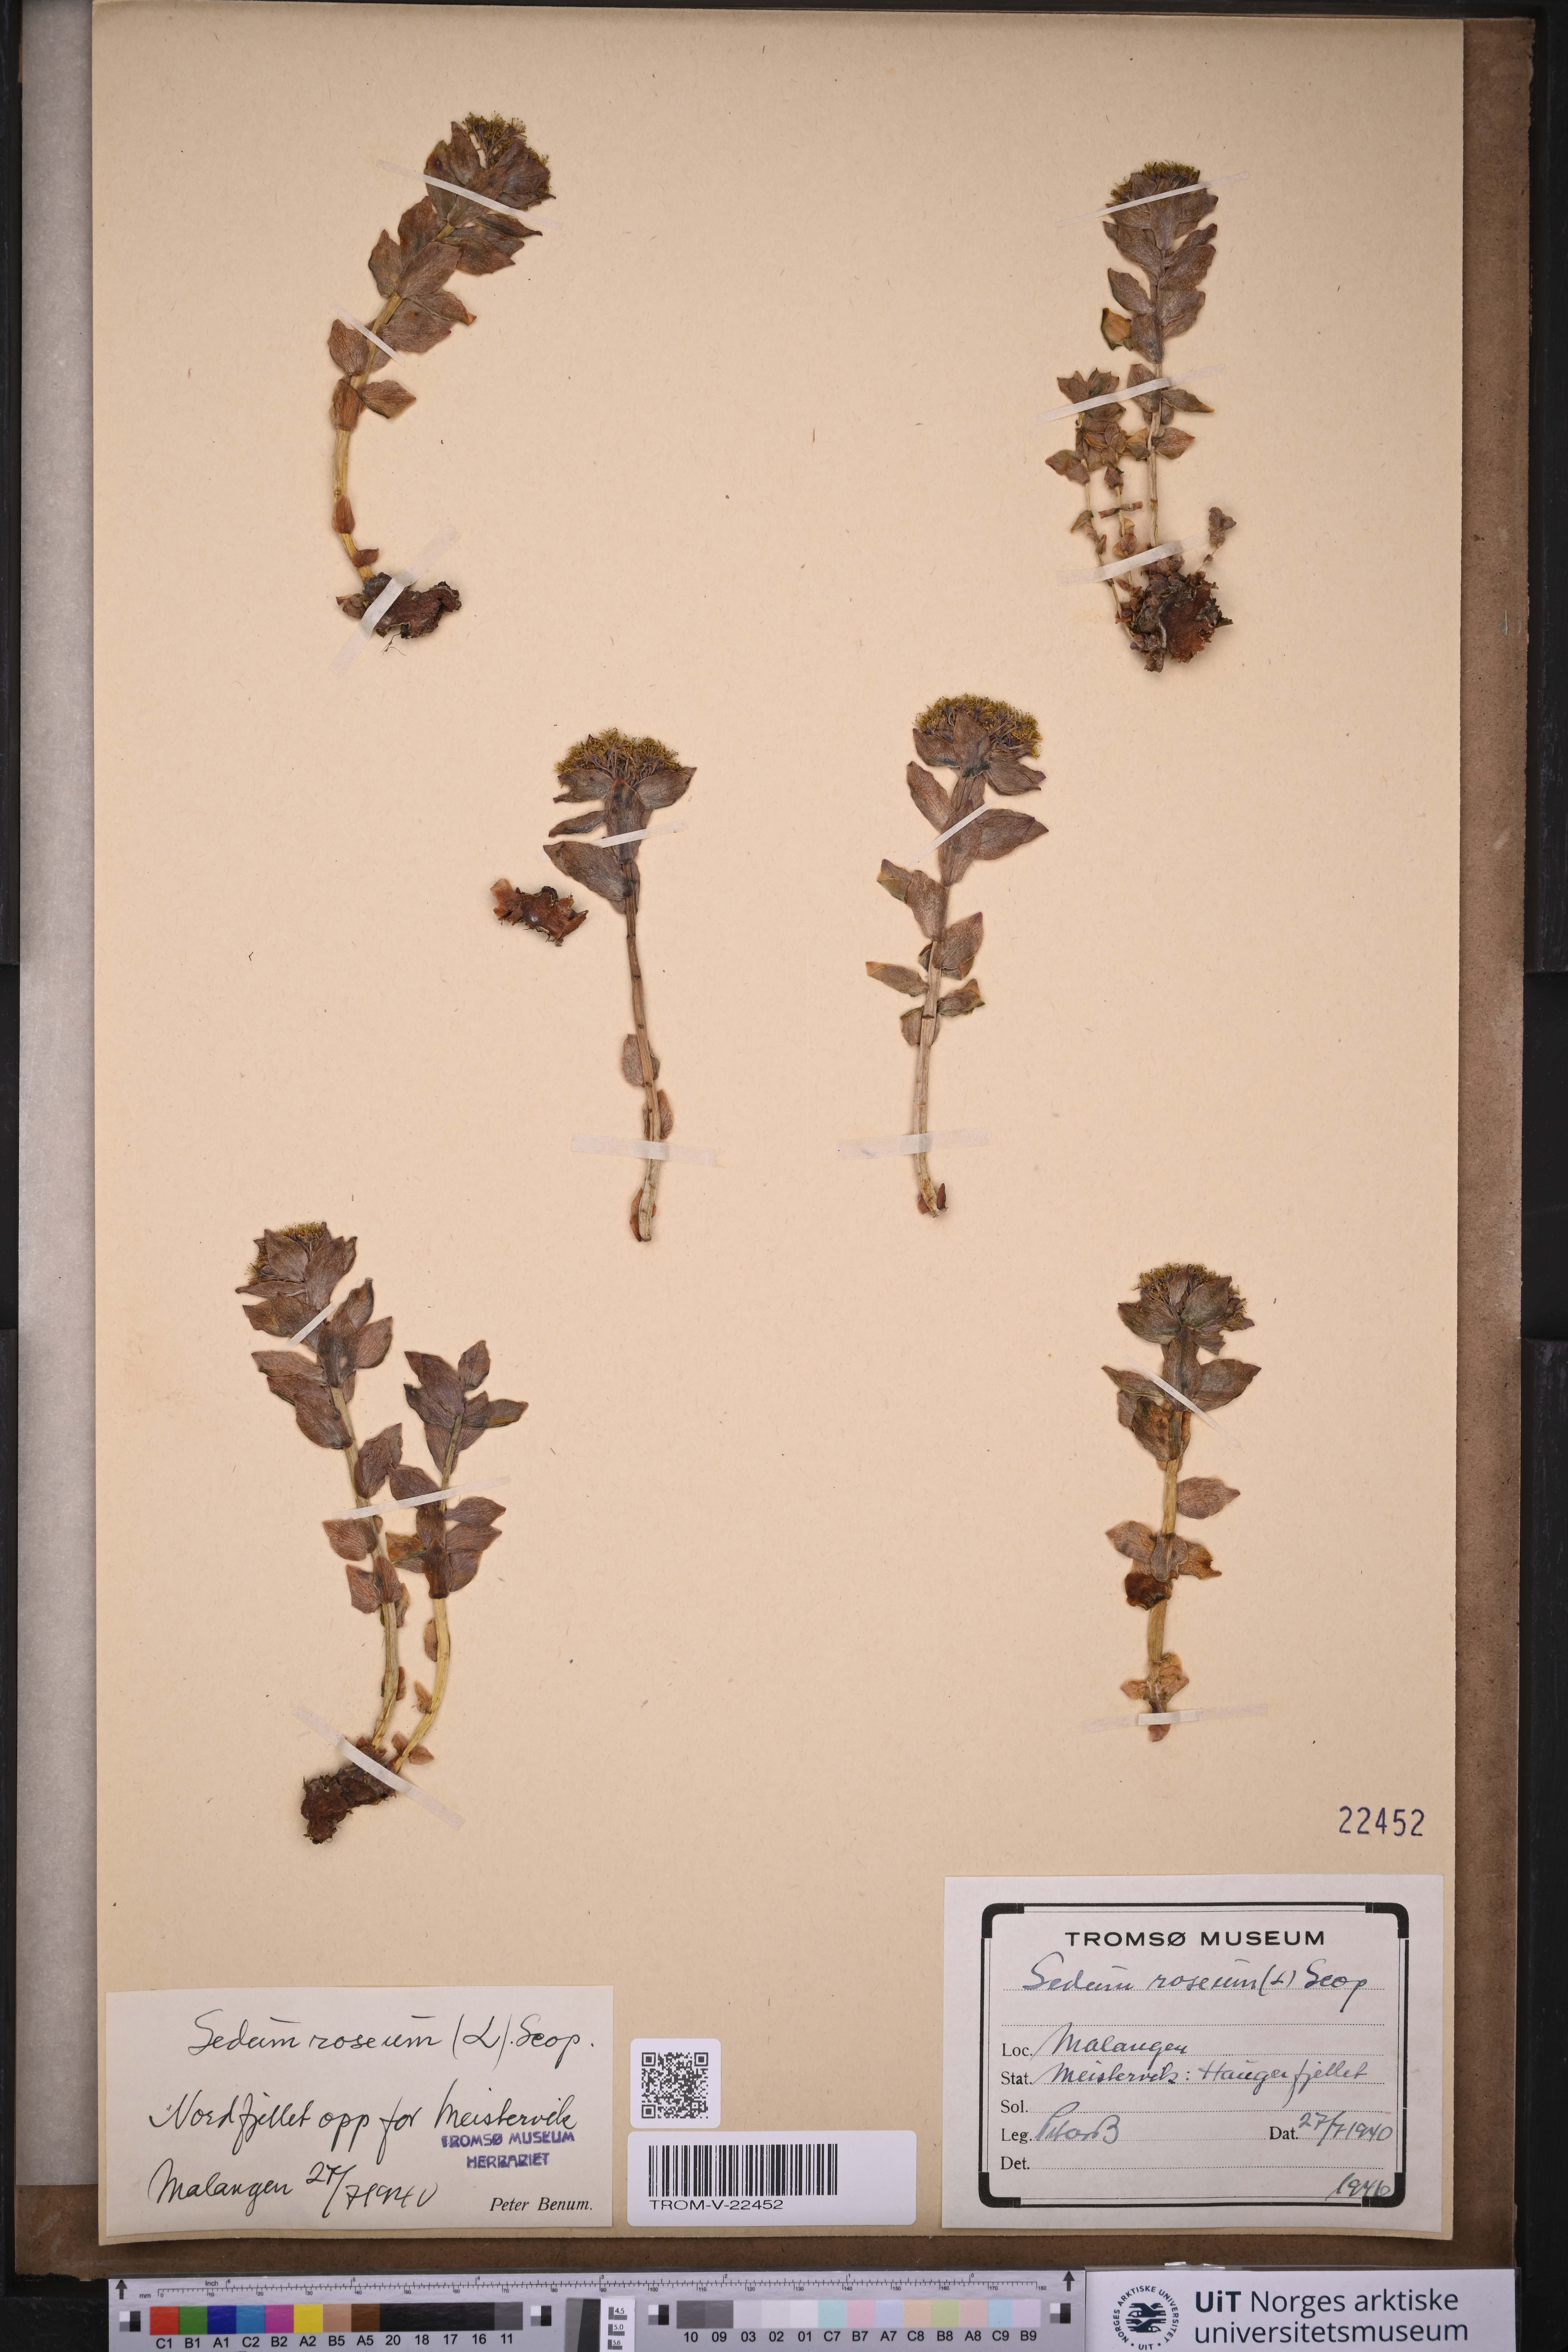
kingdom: Plantae
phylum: Tracheophyta
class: Magnoliopsida
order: Saxifragales
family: Crassulaceae
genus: Rhodiola
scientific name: Rhodiola rosea
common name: Roseroot
